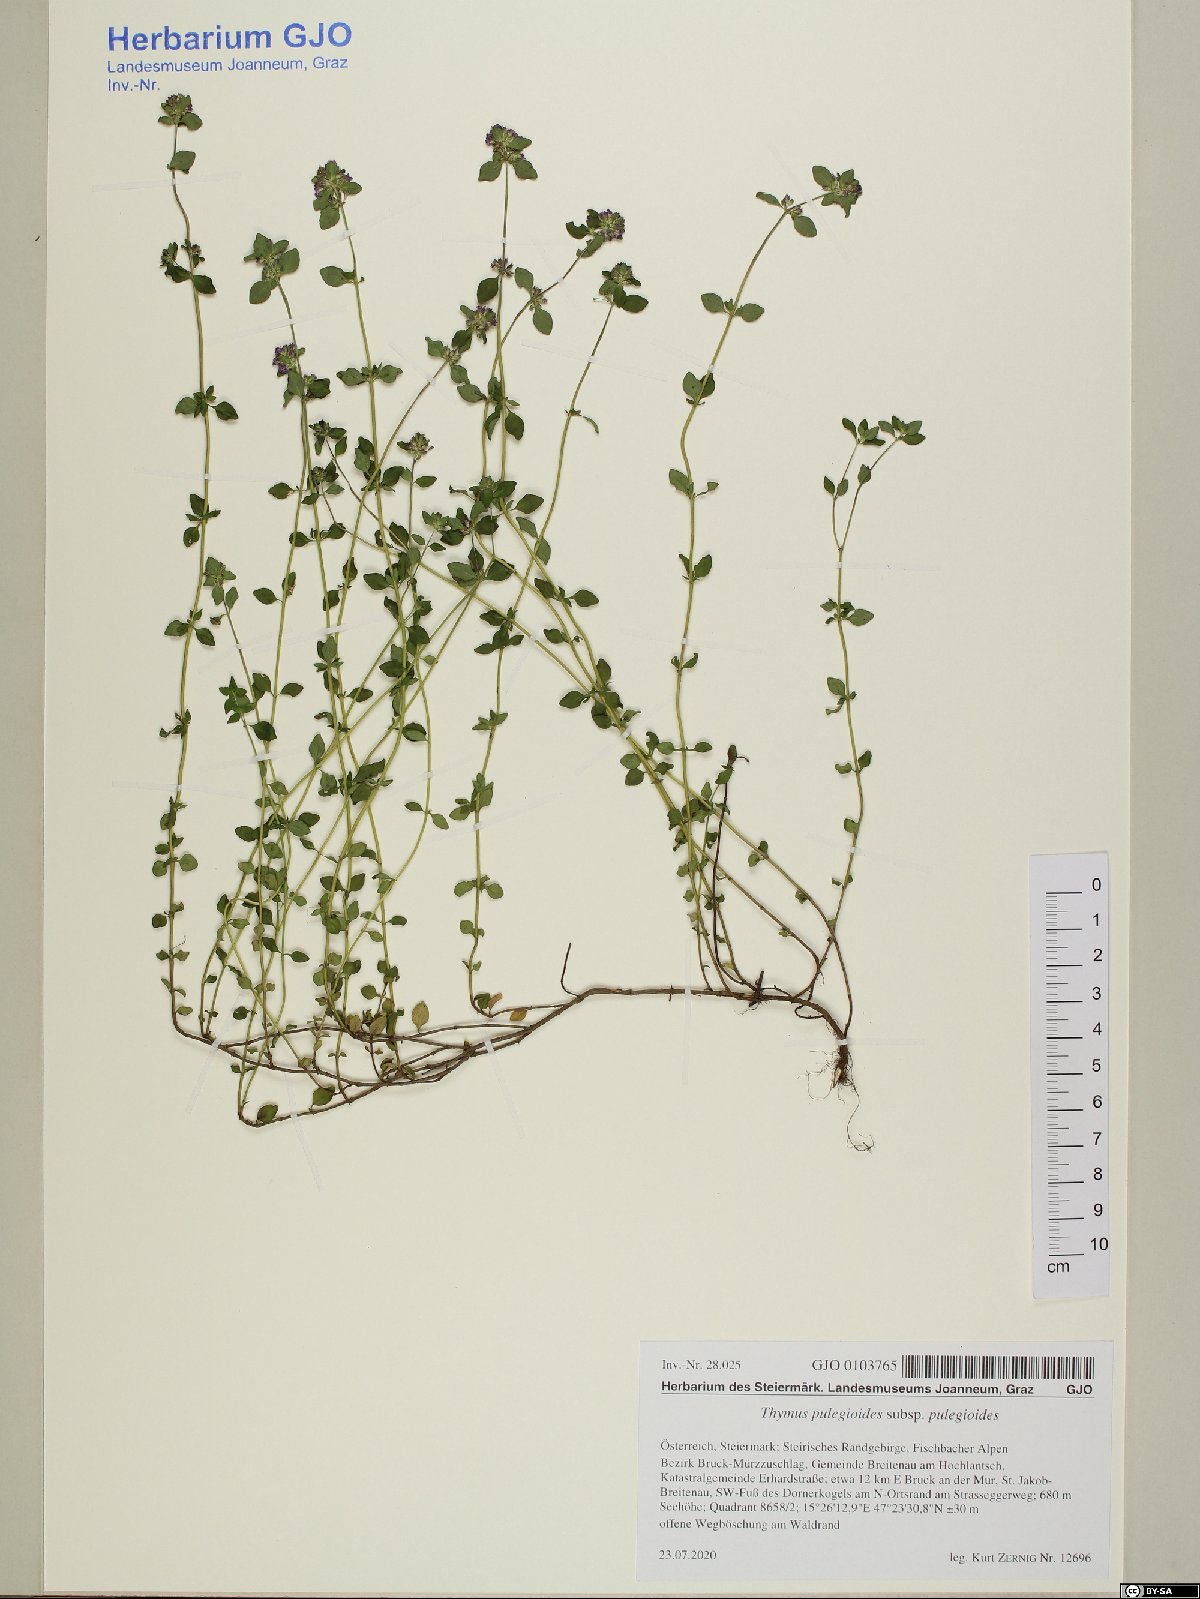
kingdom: Plantae
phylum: Tracheophyta
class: Magnoliopsida
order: Lamiales
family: Lamiaceae
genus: Thymus
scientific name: Thymus pulegioides
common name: Large thyme
